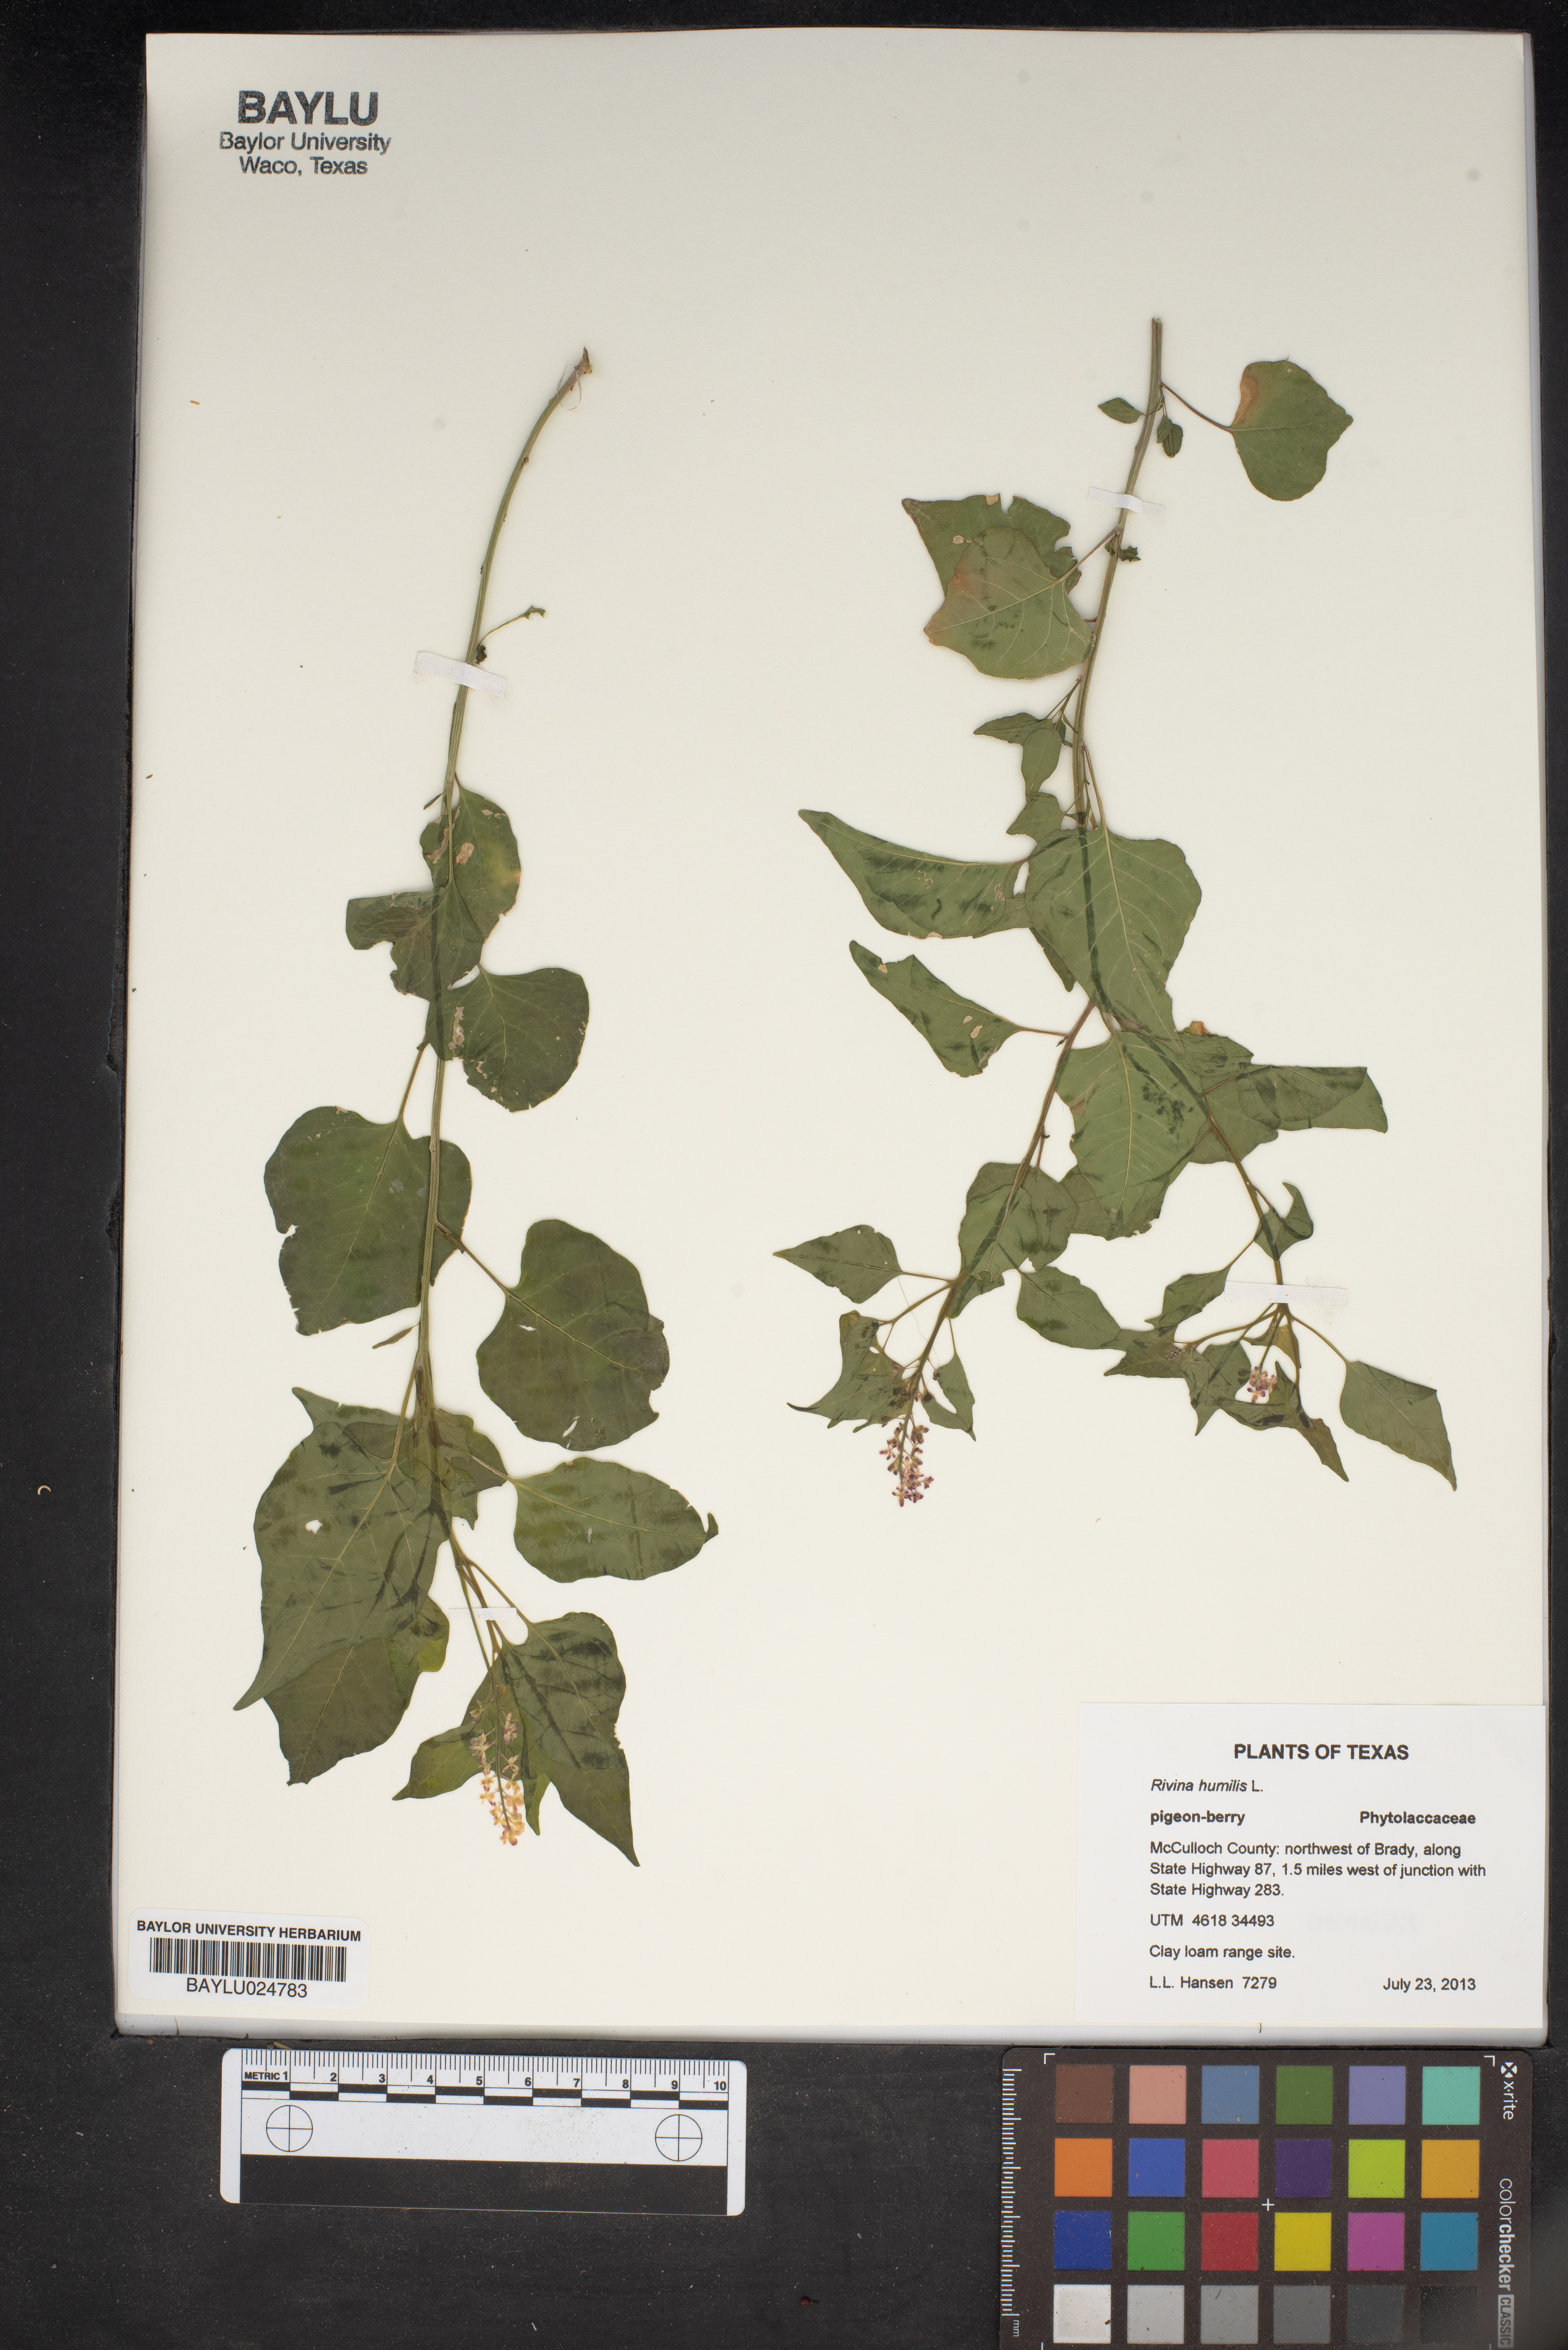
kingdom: Plantae
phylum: Tracheophyta
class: Magnoliopsida
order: Caryophyllales
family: Phytolaccaceae
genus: Rivina
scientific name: Rivina humilis
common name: Rougeplant
